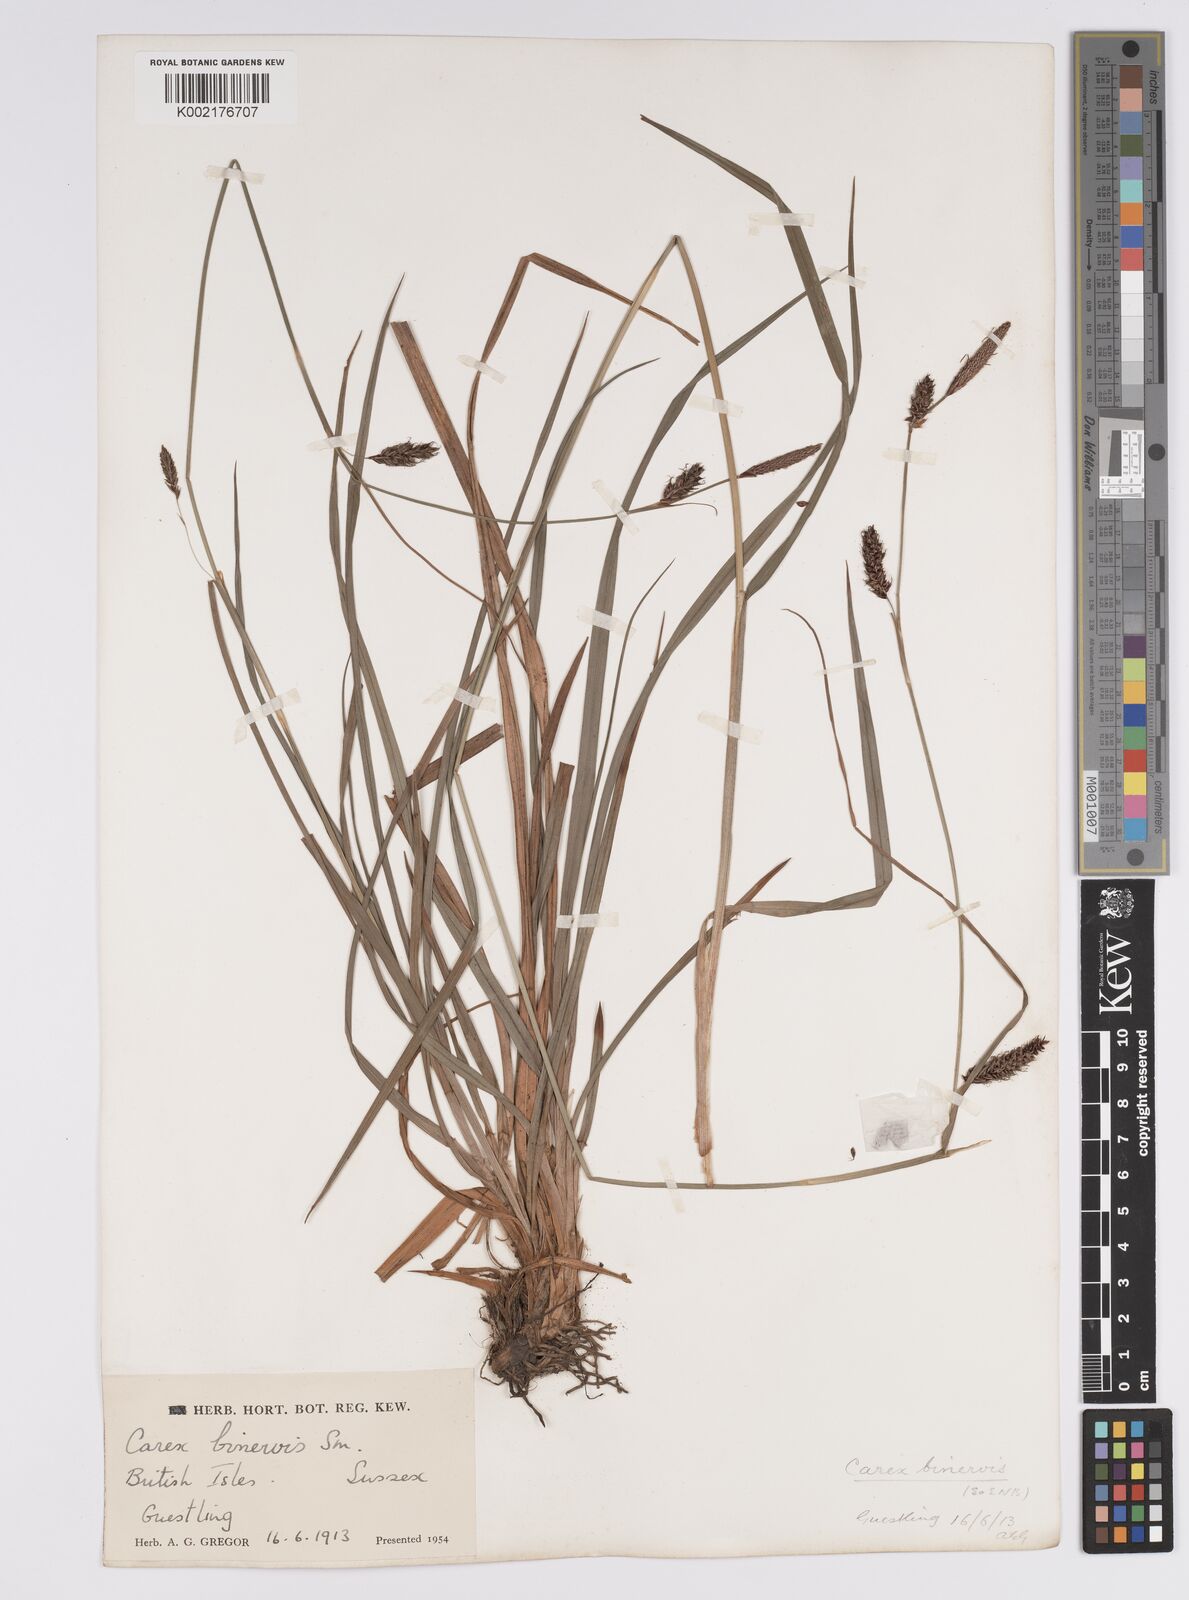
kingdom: Plantae
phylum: Tracheophyta
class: Liliopsida
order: Poales
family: Cyperaceae
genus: Carex
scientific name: Carex binervis
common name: Green-ribbed sedge
